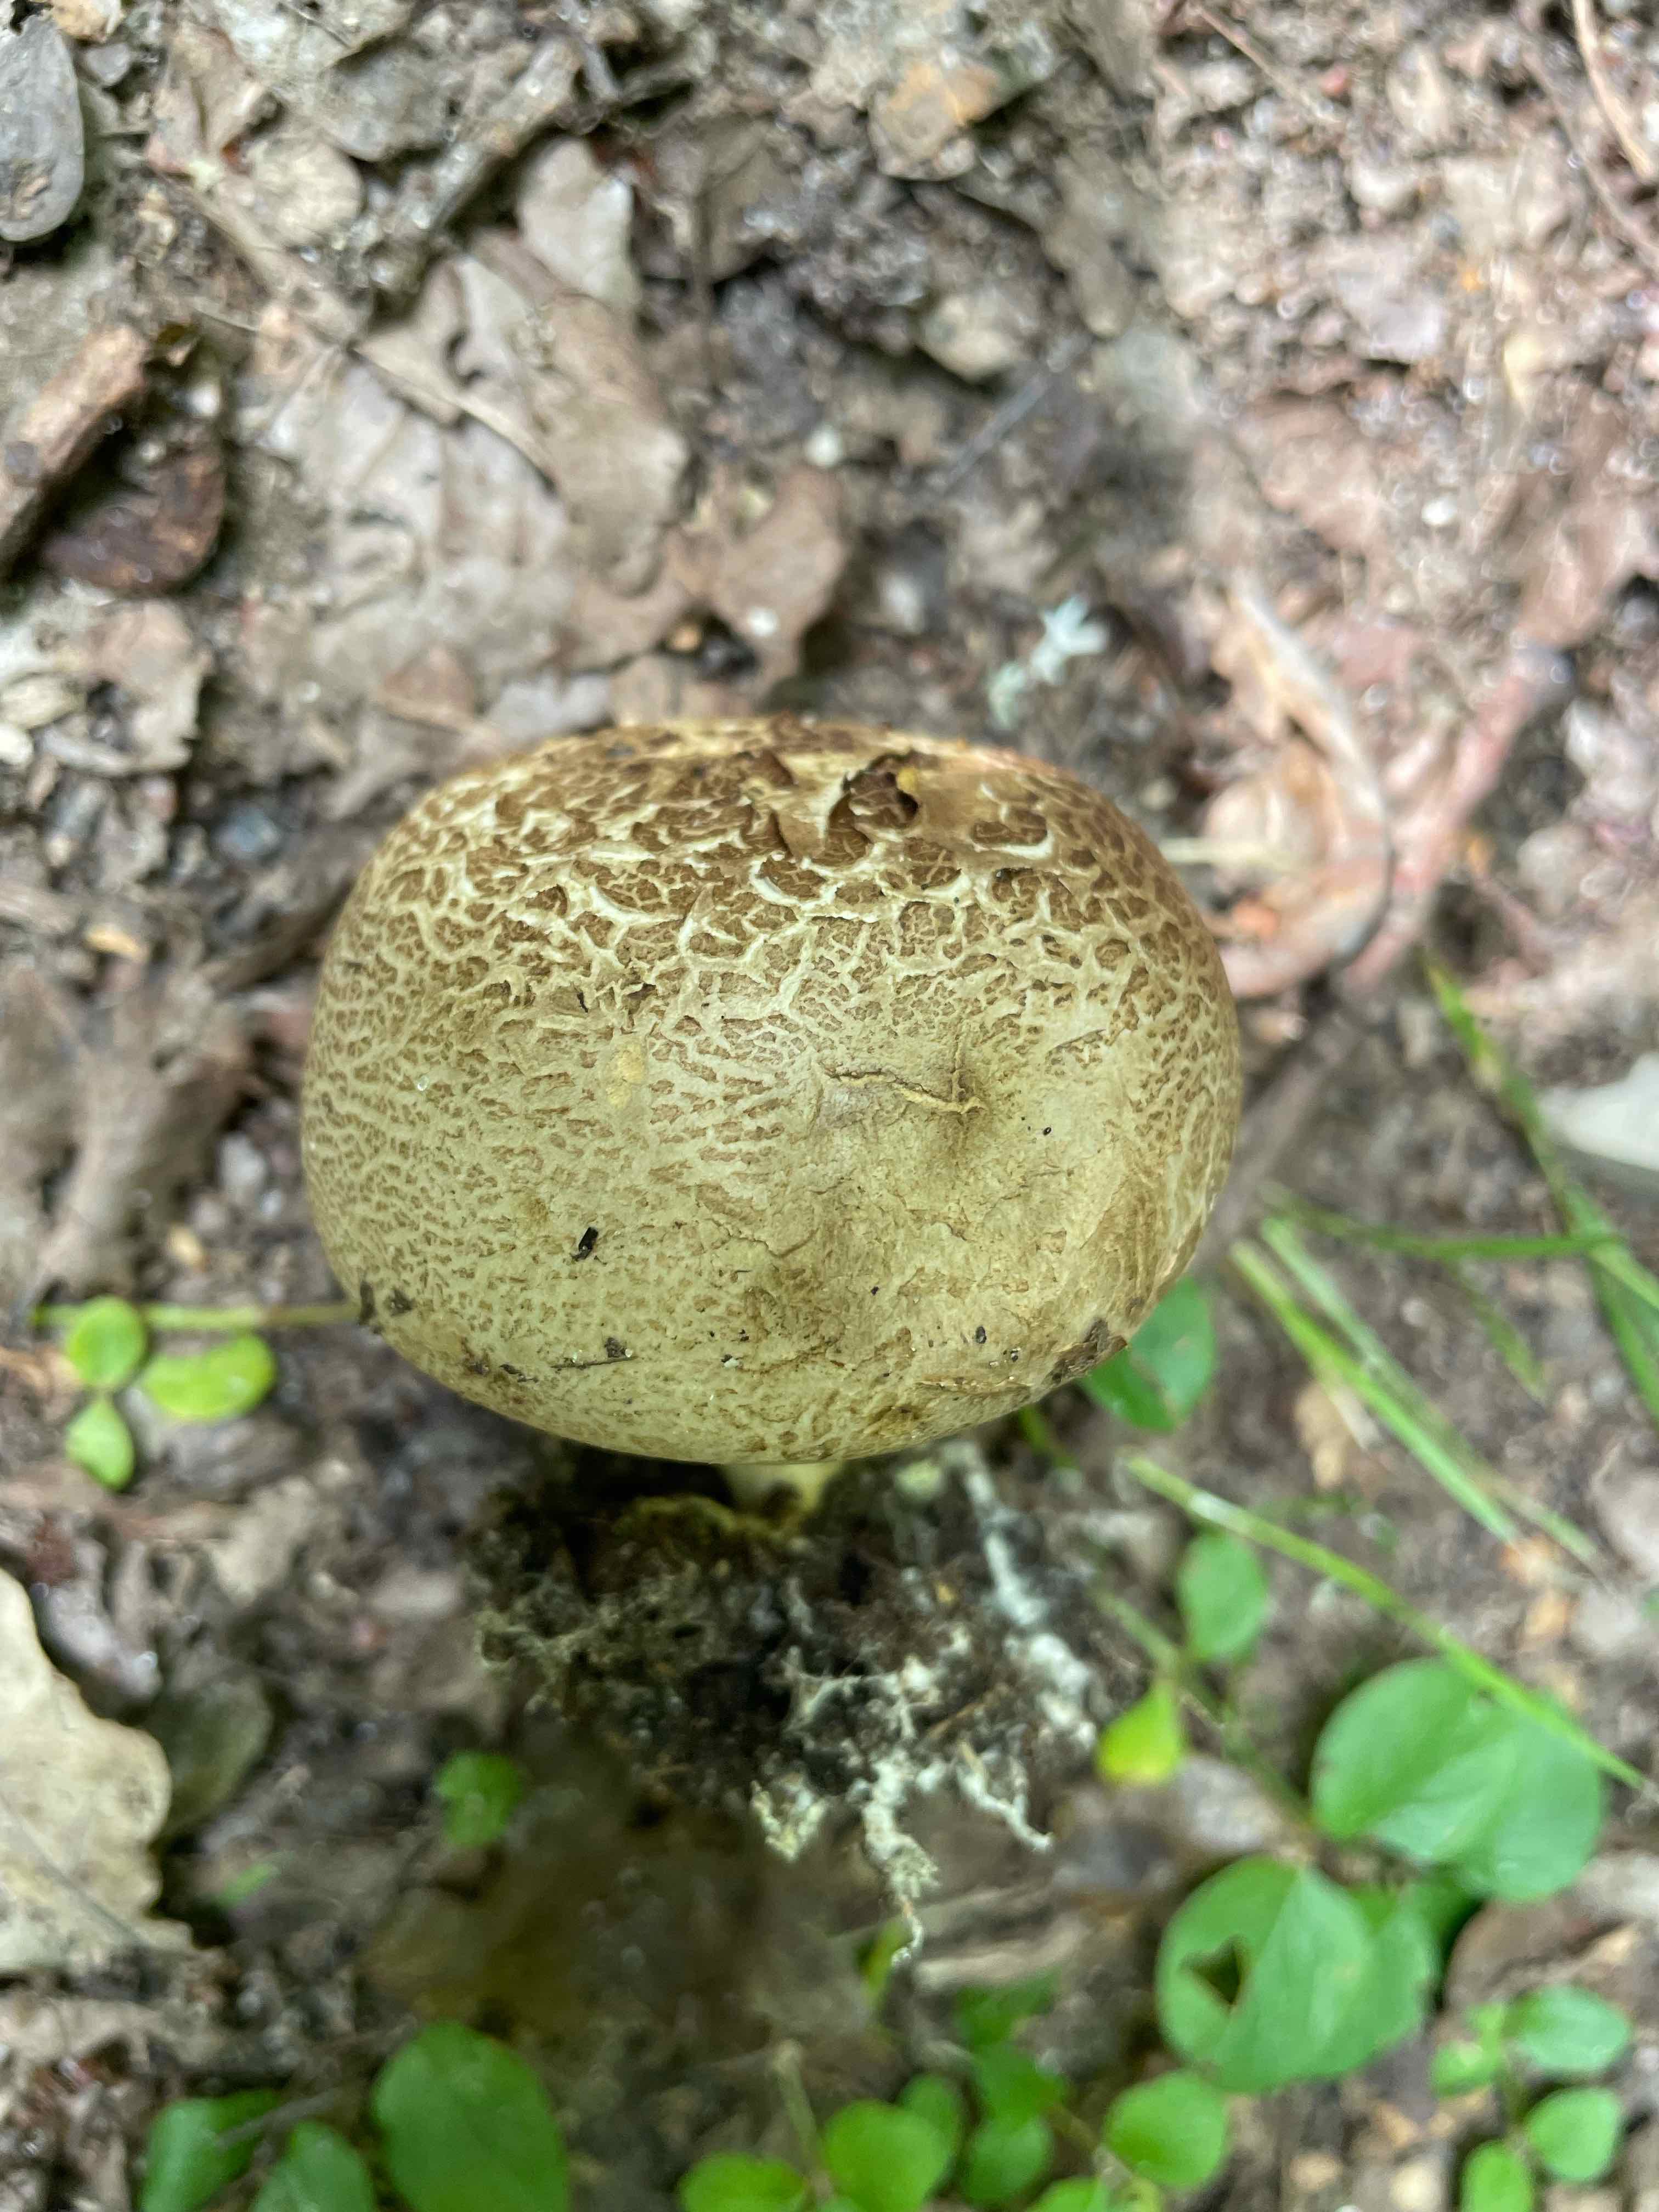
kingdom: Fungi
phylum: Basidiomycota
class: Agaricomycetes
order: Boletales
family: Sclerodermataceae
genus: Scleroderma
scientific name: Scleroderma citrinum
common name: almindelig bruskbold
